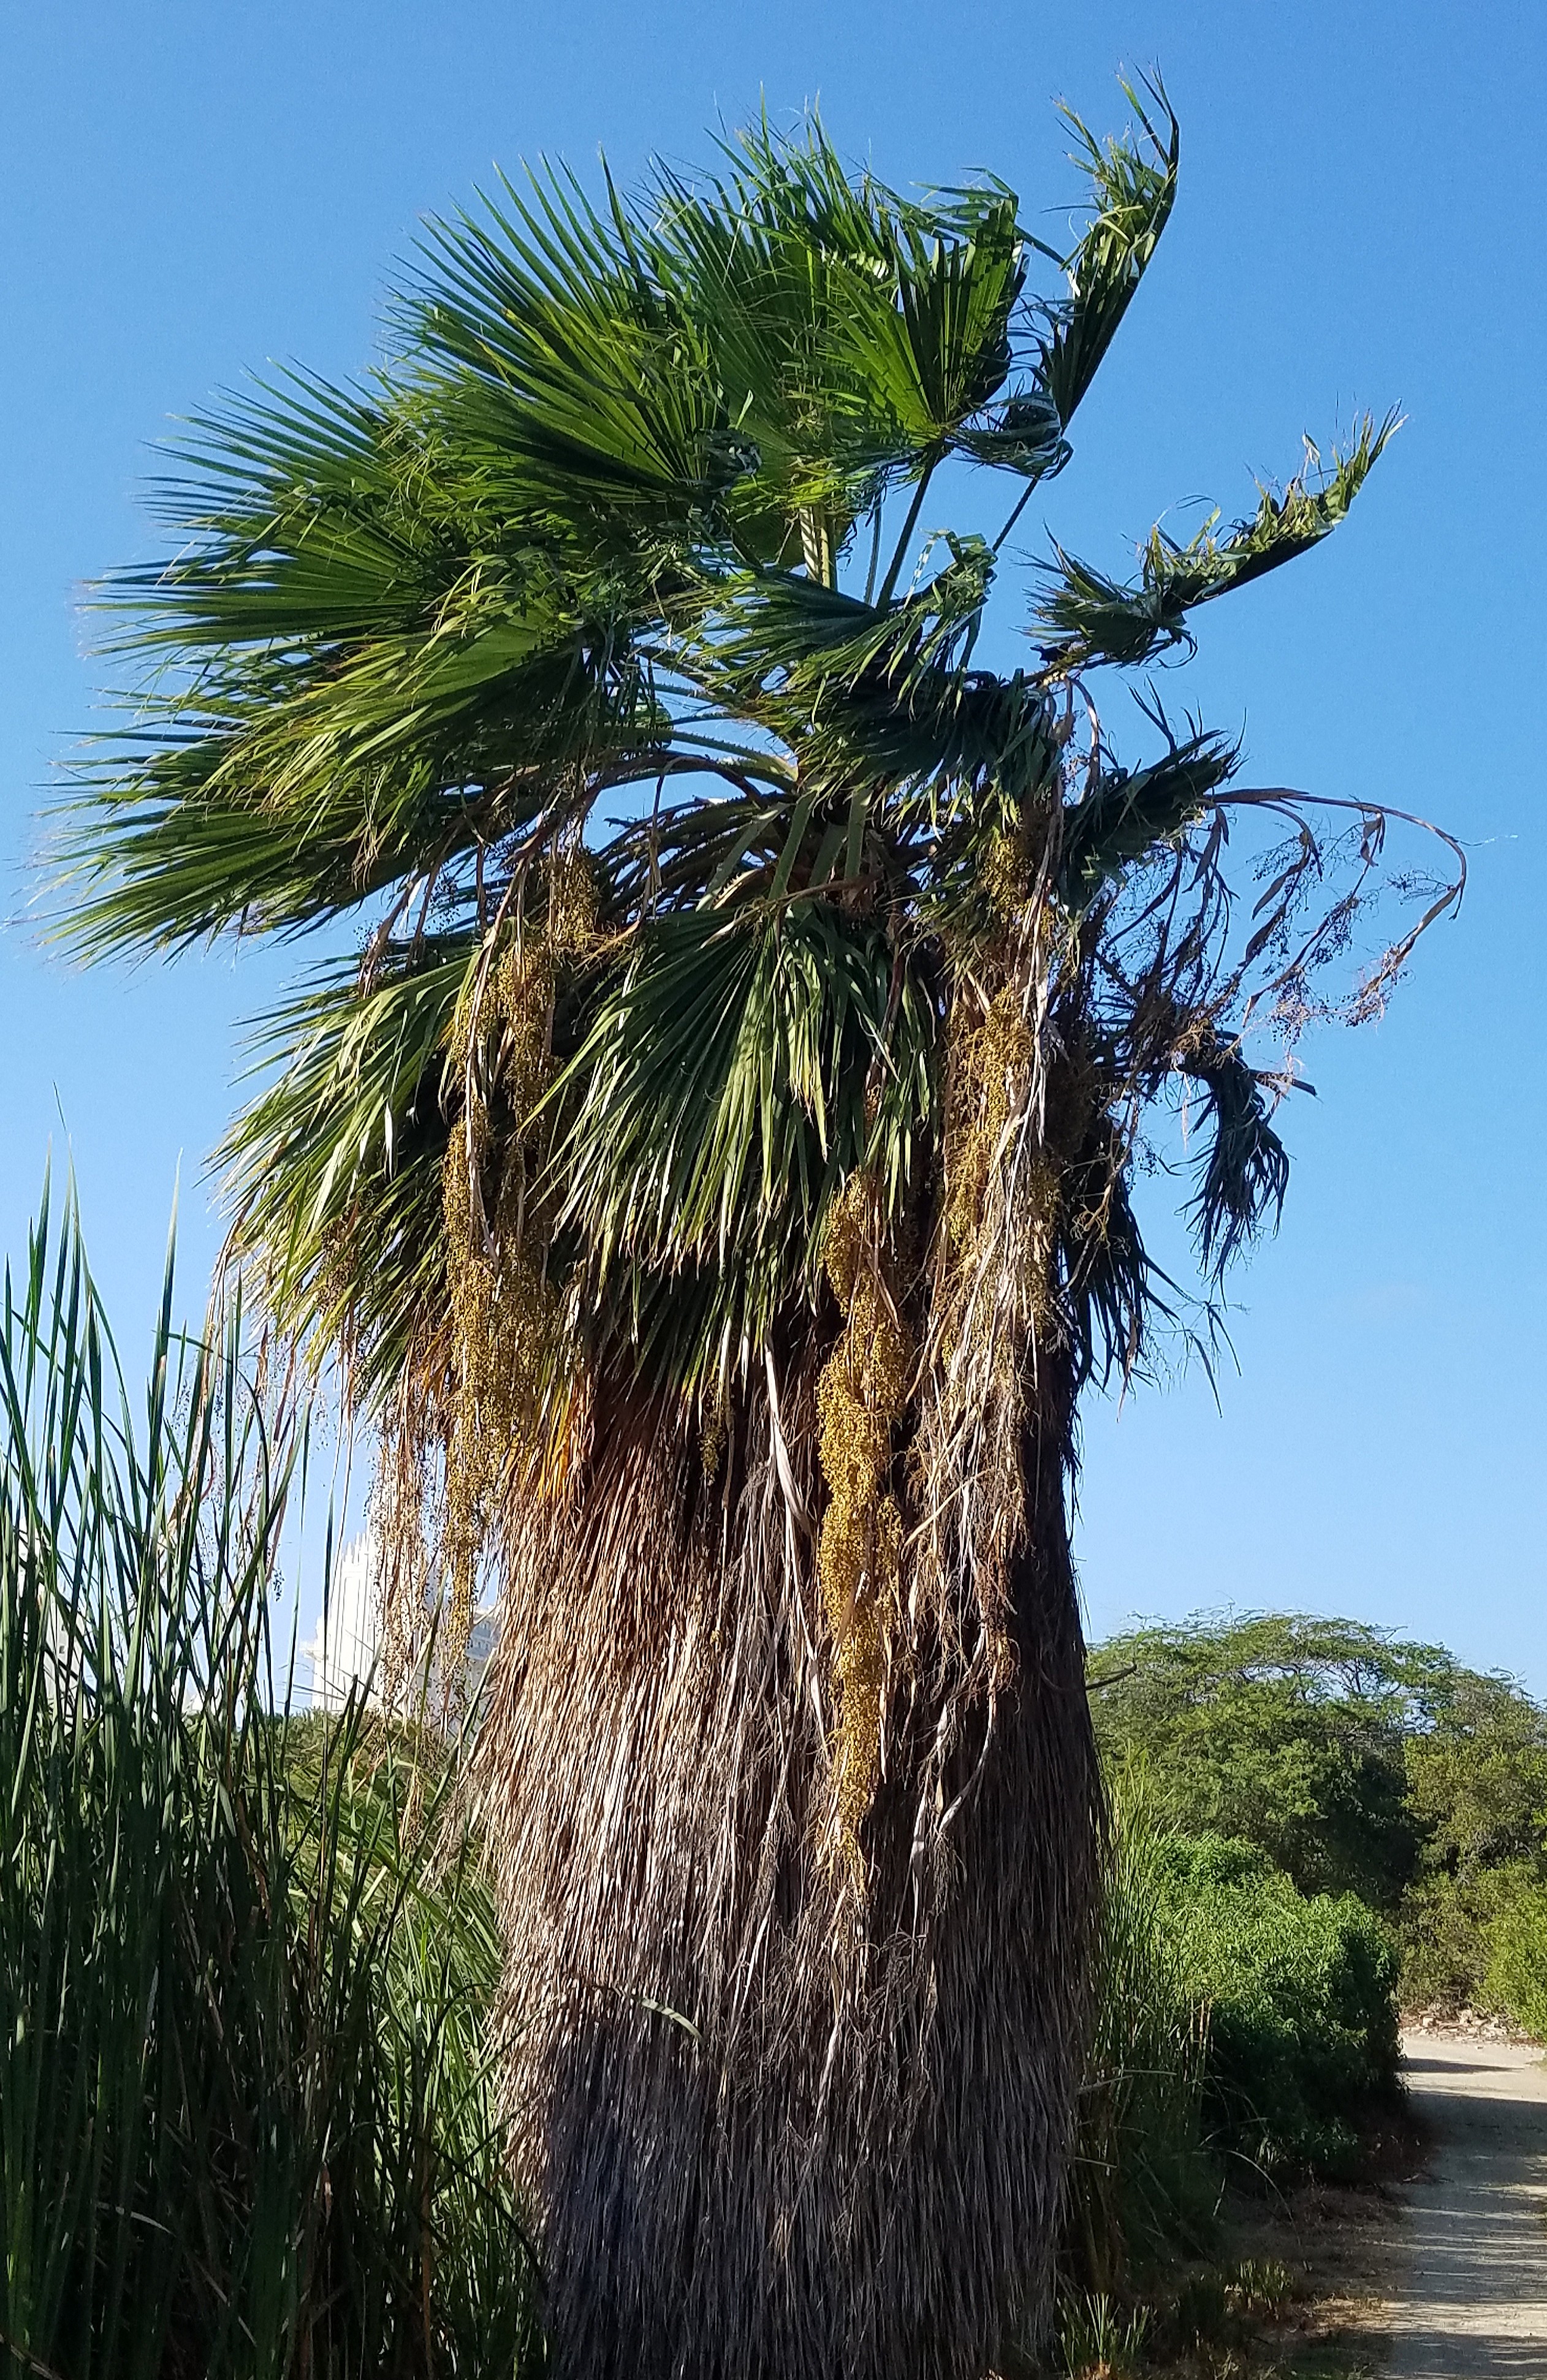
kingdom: Plantae
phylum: Tracheophyta
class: Liliopsida
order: Arecales
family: Arecaceae
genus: Washingtonia
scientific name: Washingtonia robusta
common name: Mexican fan palm
